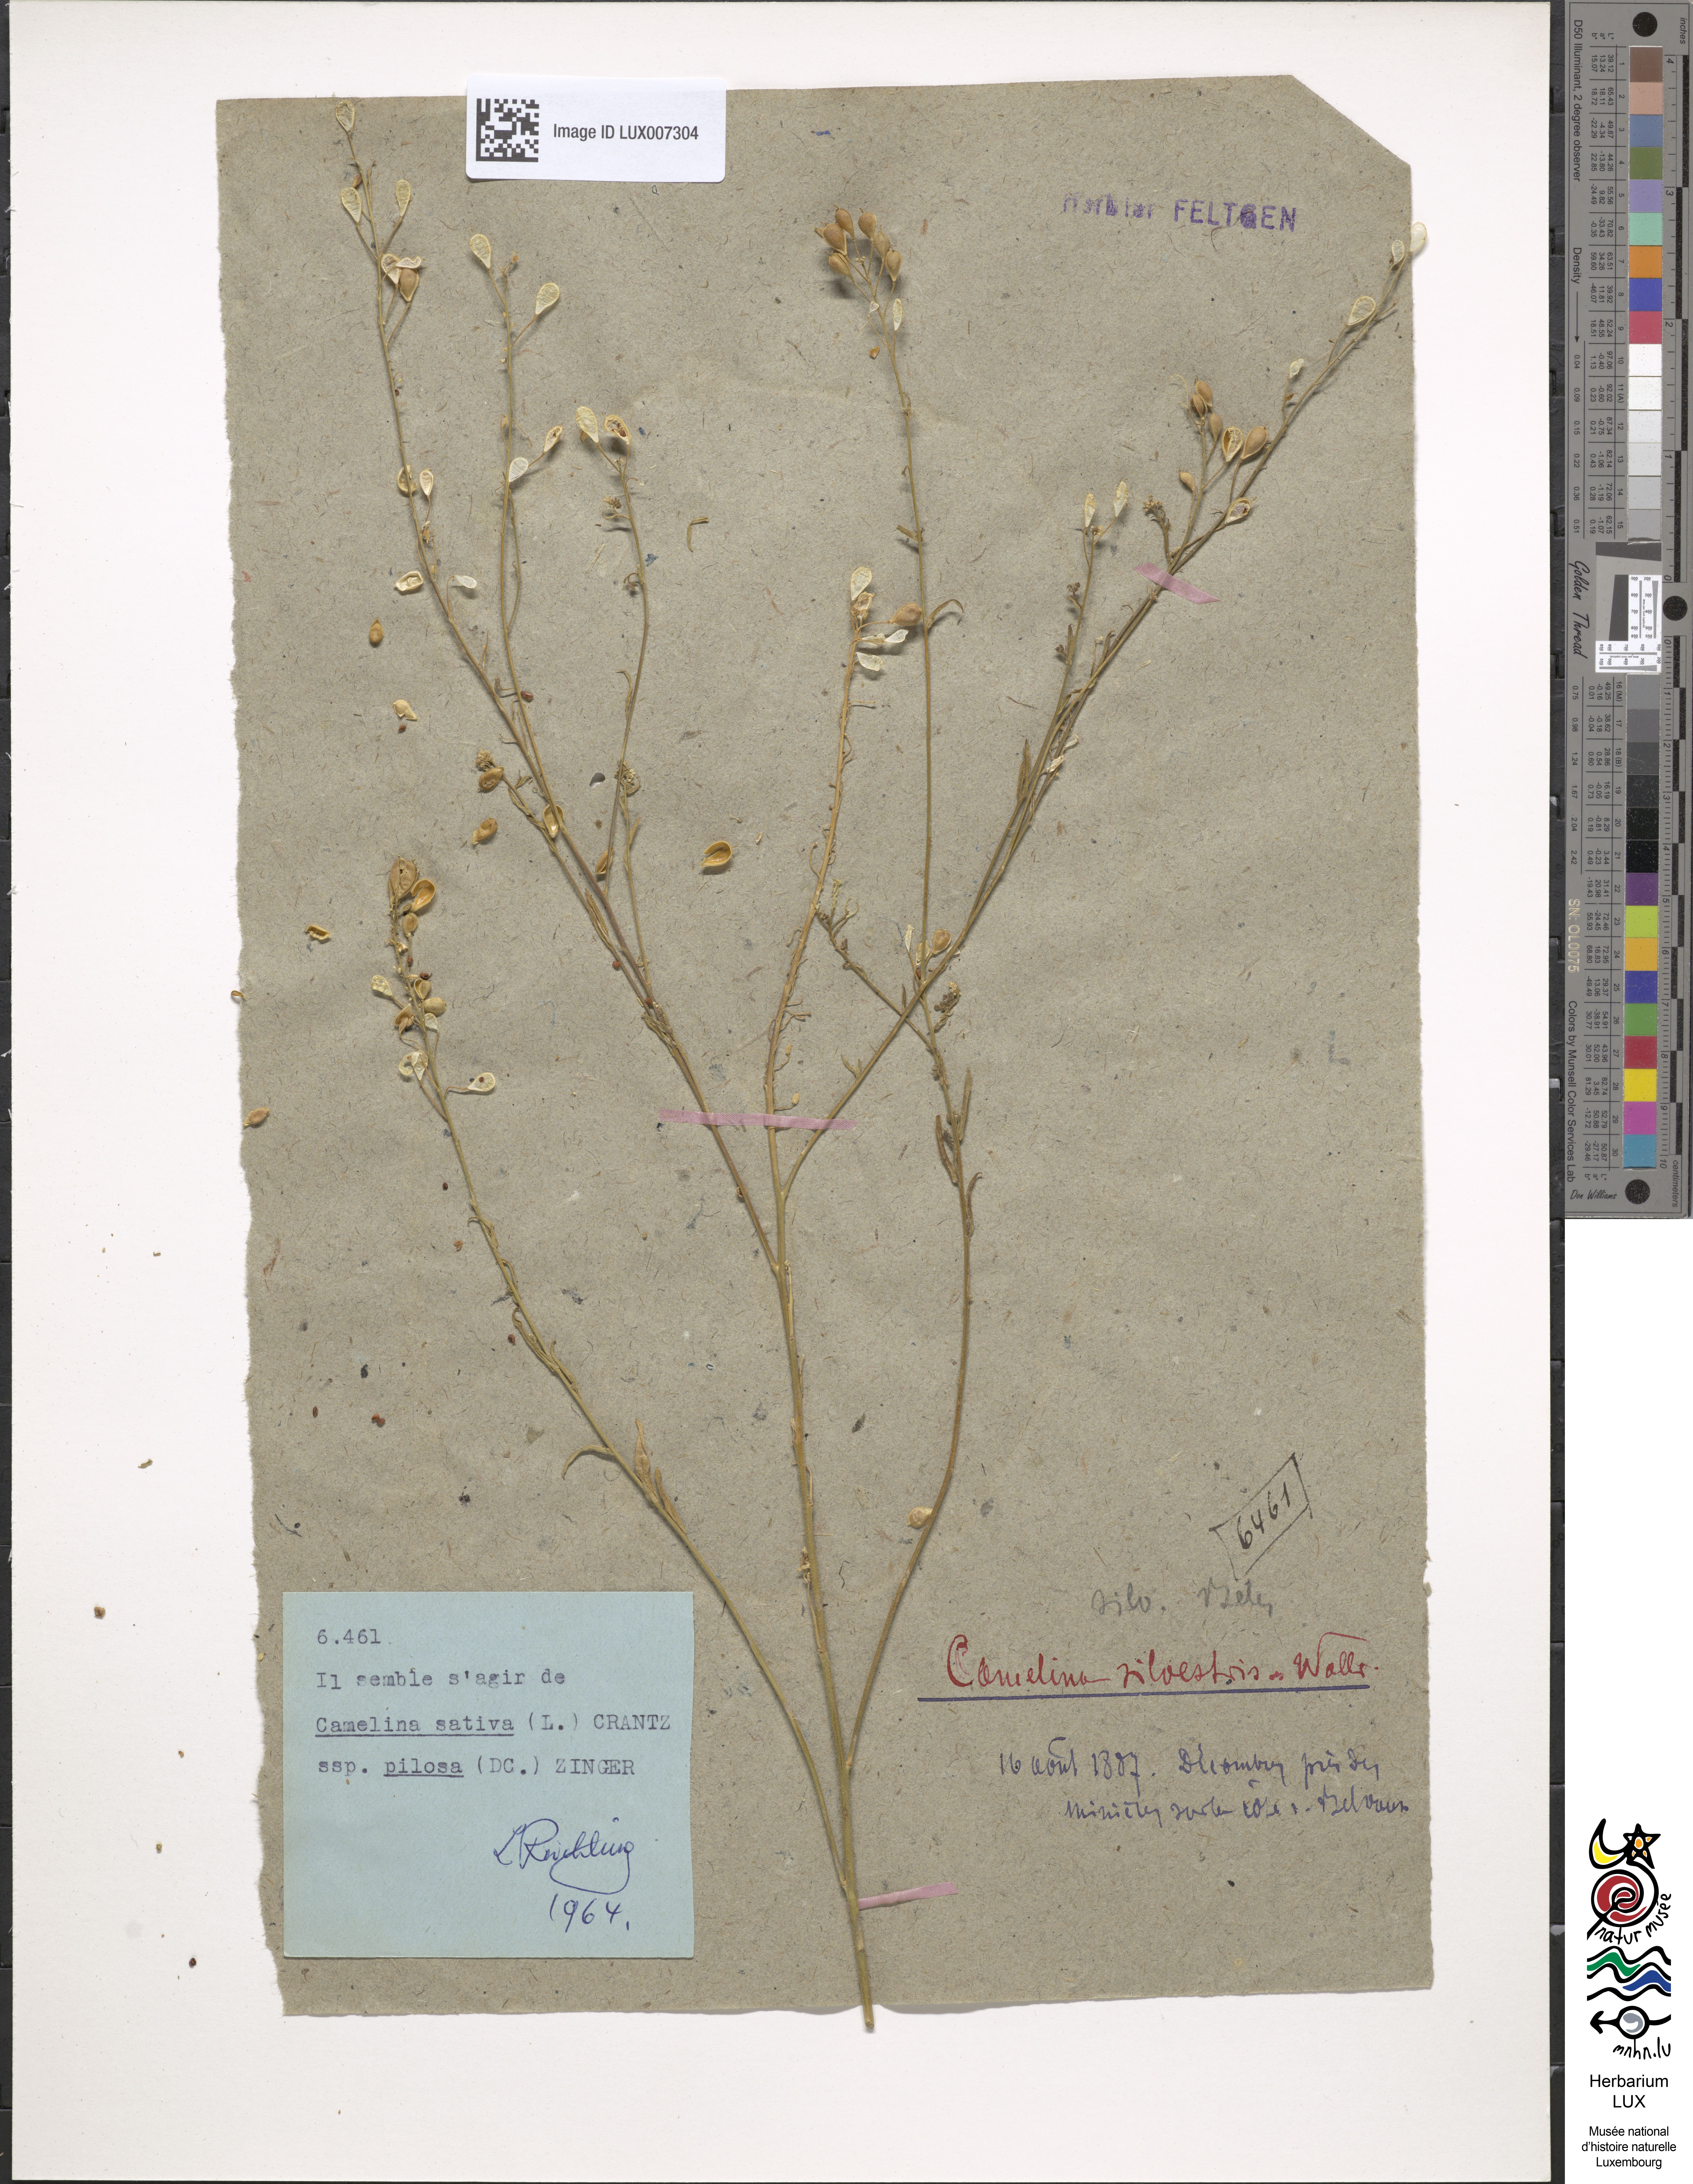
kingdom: Plantae
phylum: Tracheophyta
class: Magnoliopsida
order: Brassicales
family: Brassicaceae
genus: Camelina
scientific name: Camelina sativa
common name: Gold-of-pleasure
